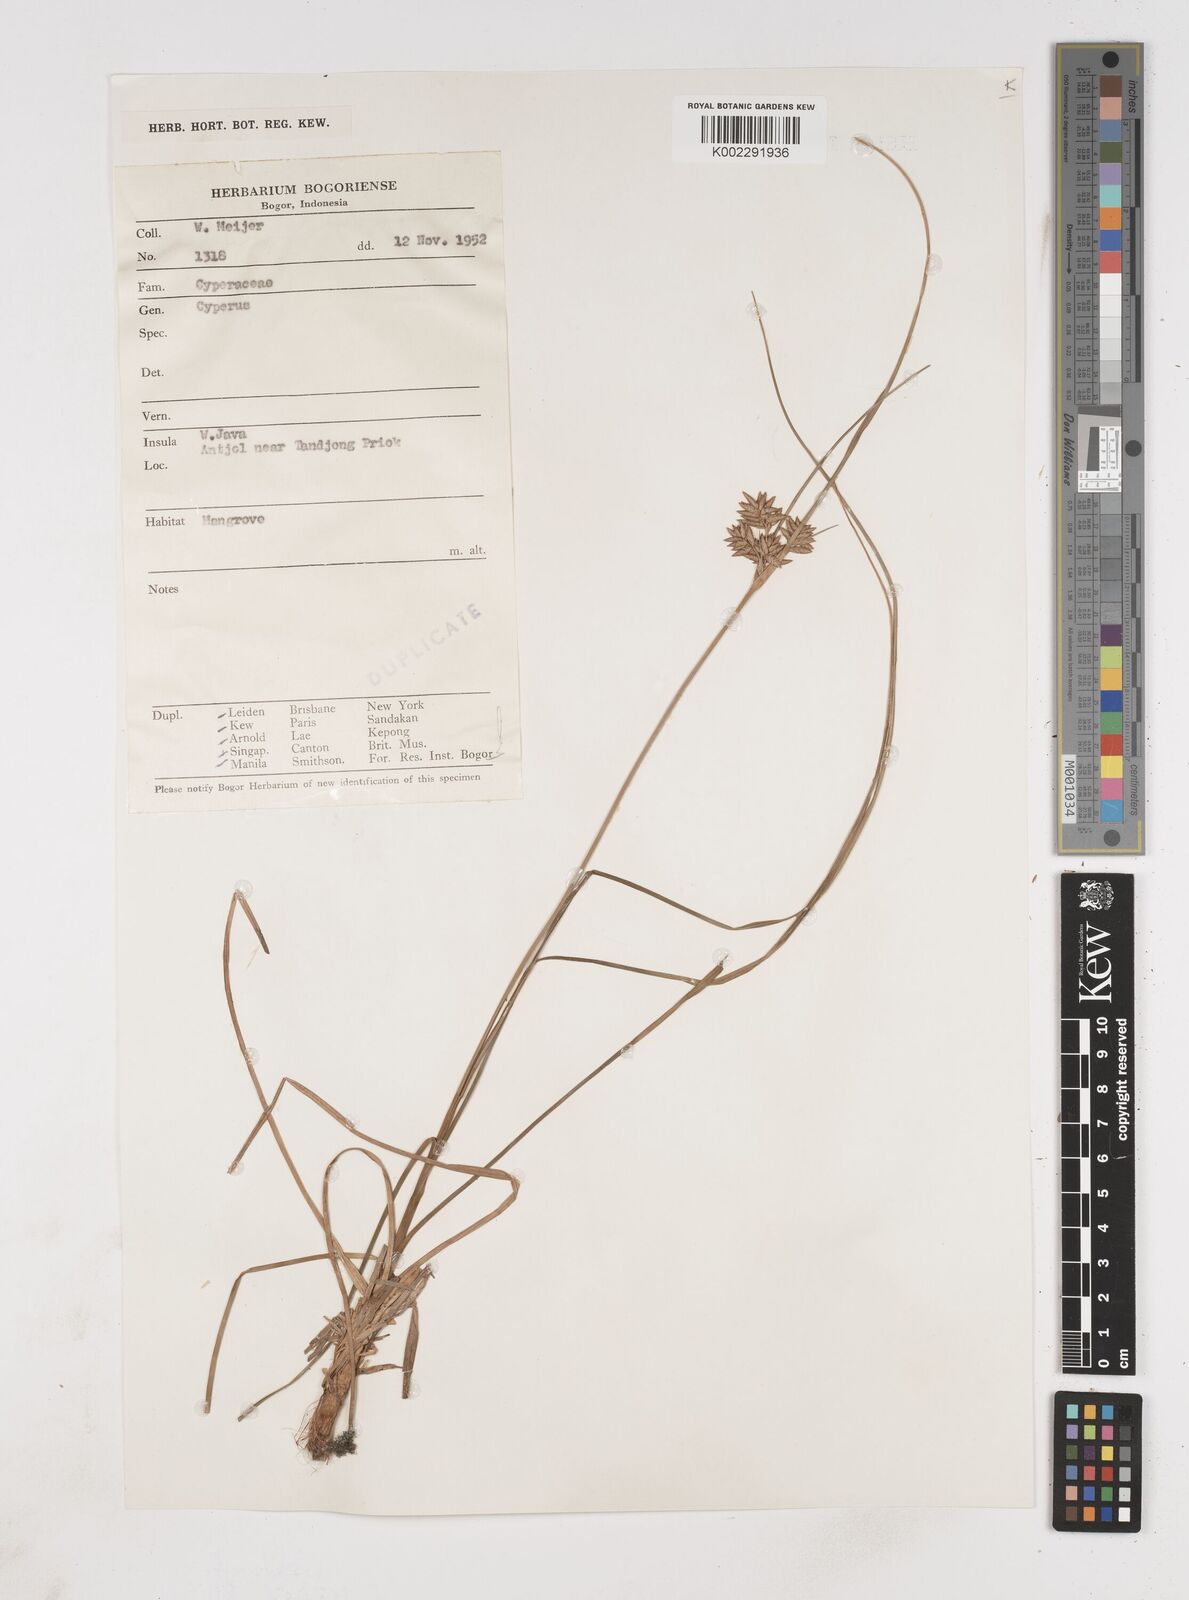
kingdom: Plantae
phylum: Tracheophyta
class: Liliopsida
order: Poales
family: Cyperaceae
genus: Cyperus
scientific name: Cyperus
